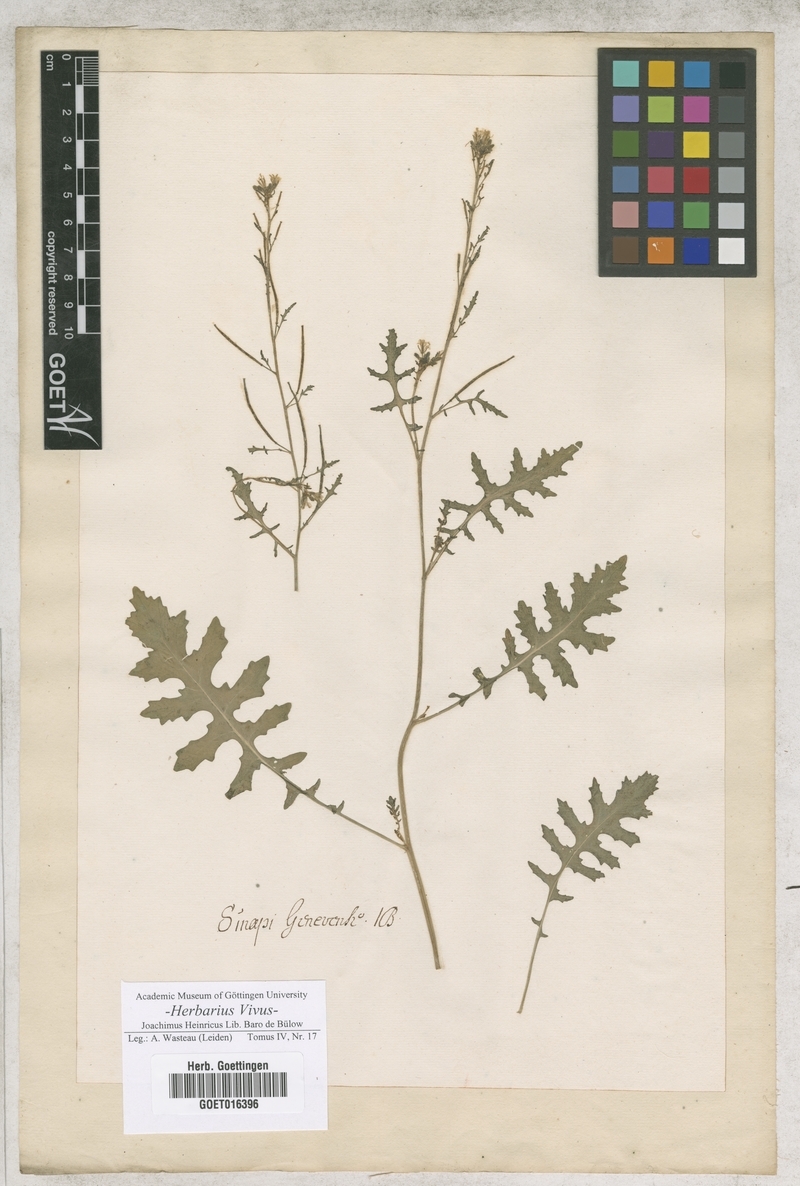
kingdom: Plantae
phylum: Tracheophyta
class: Magnoliopsida
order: Brassicales
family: Brassicaceae
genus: Sinapi
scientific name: Sinapi
